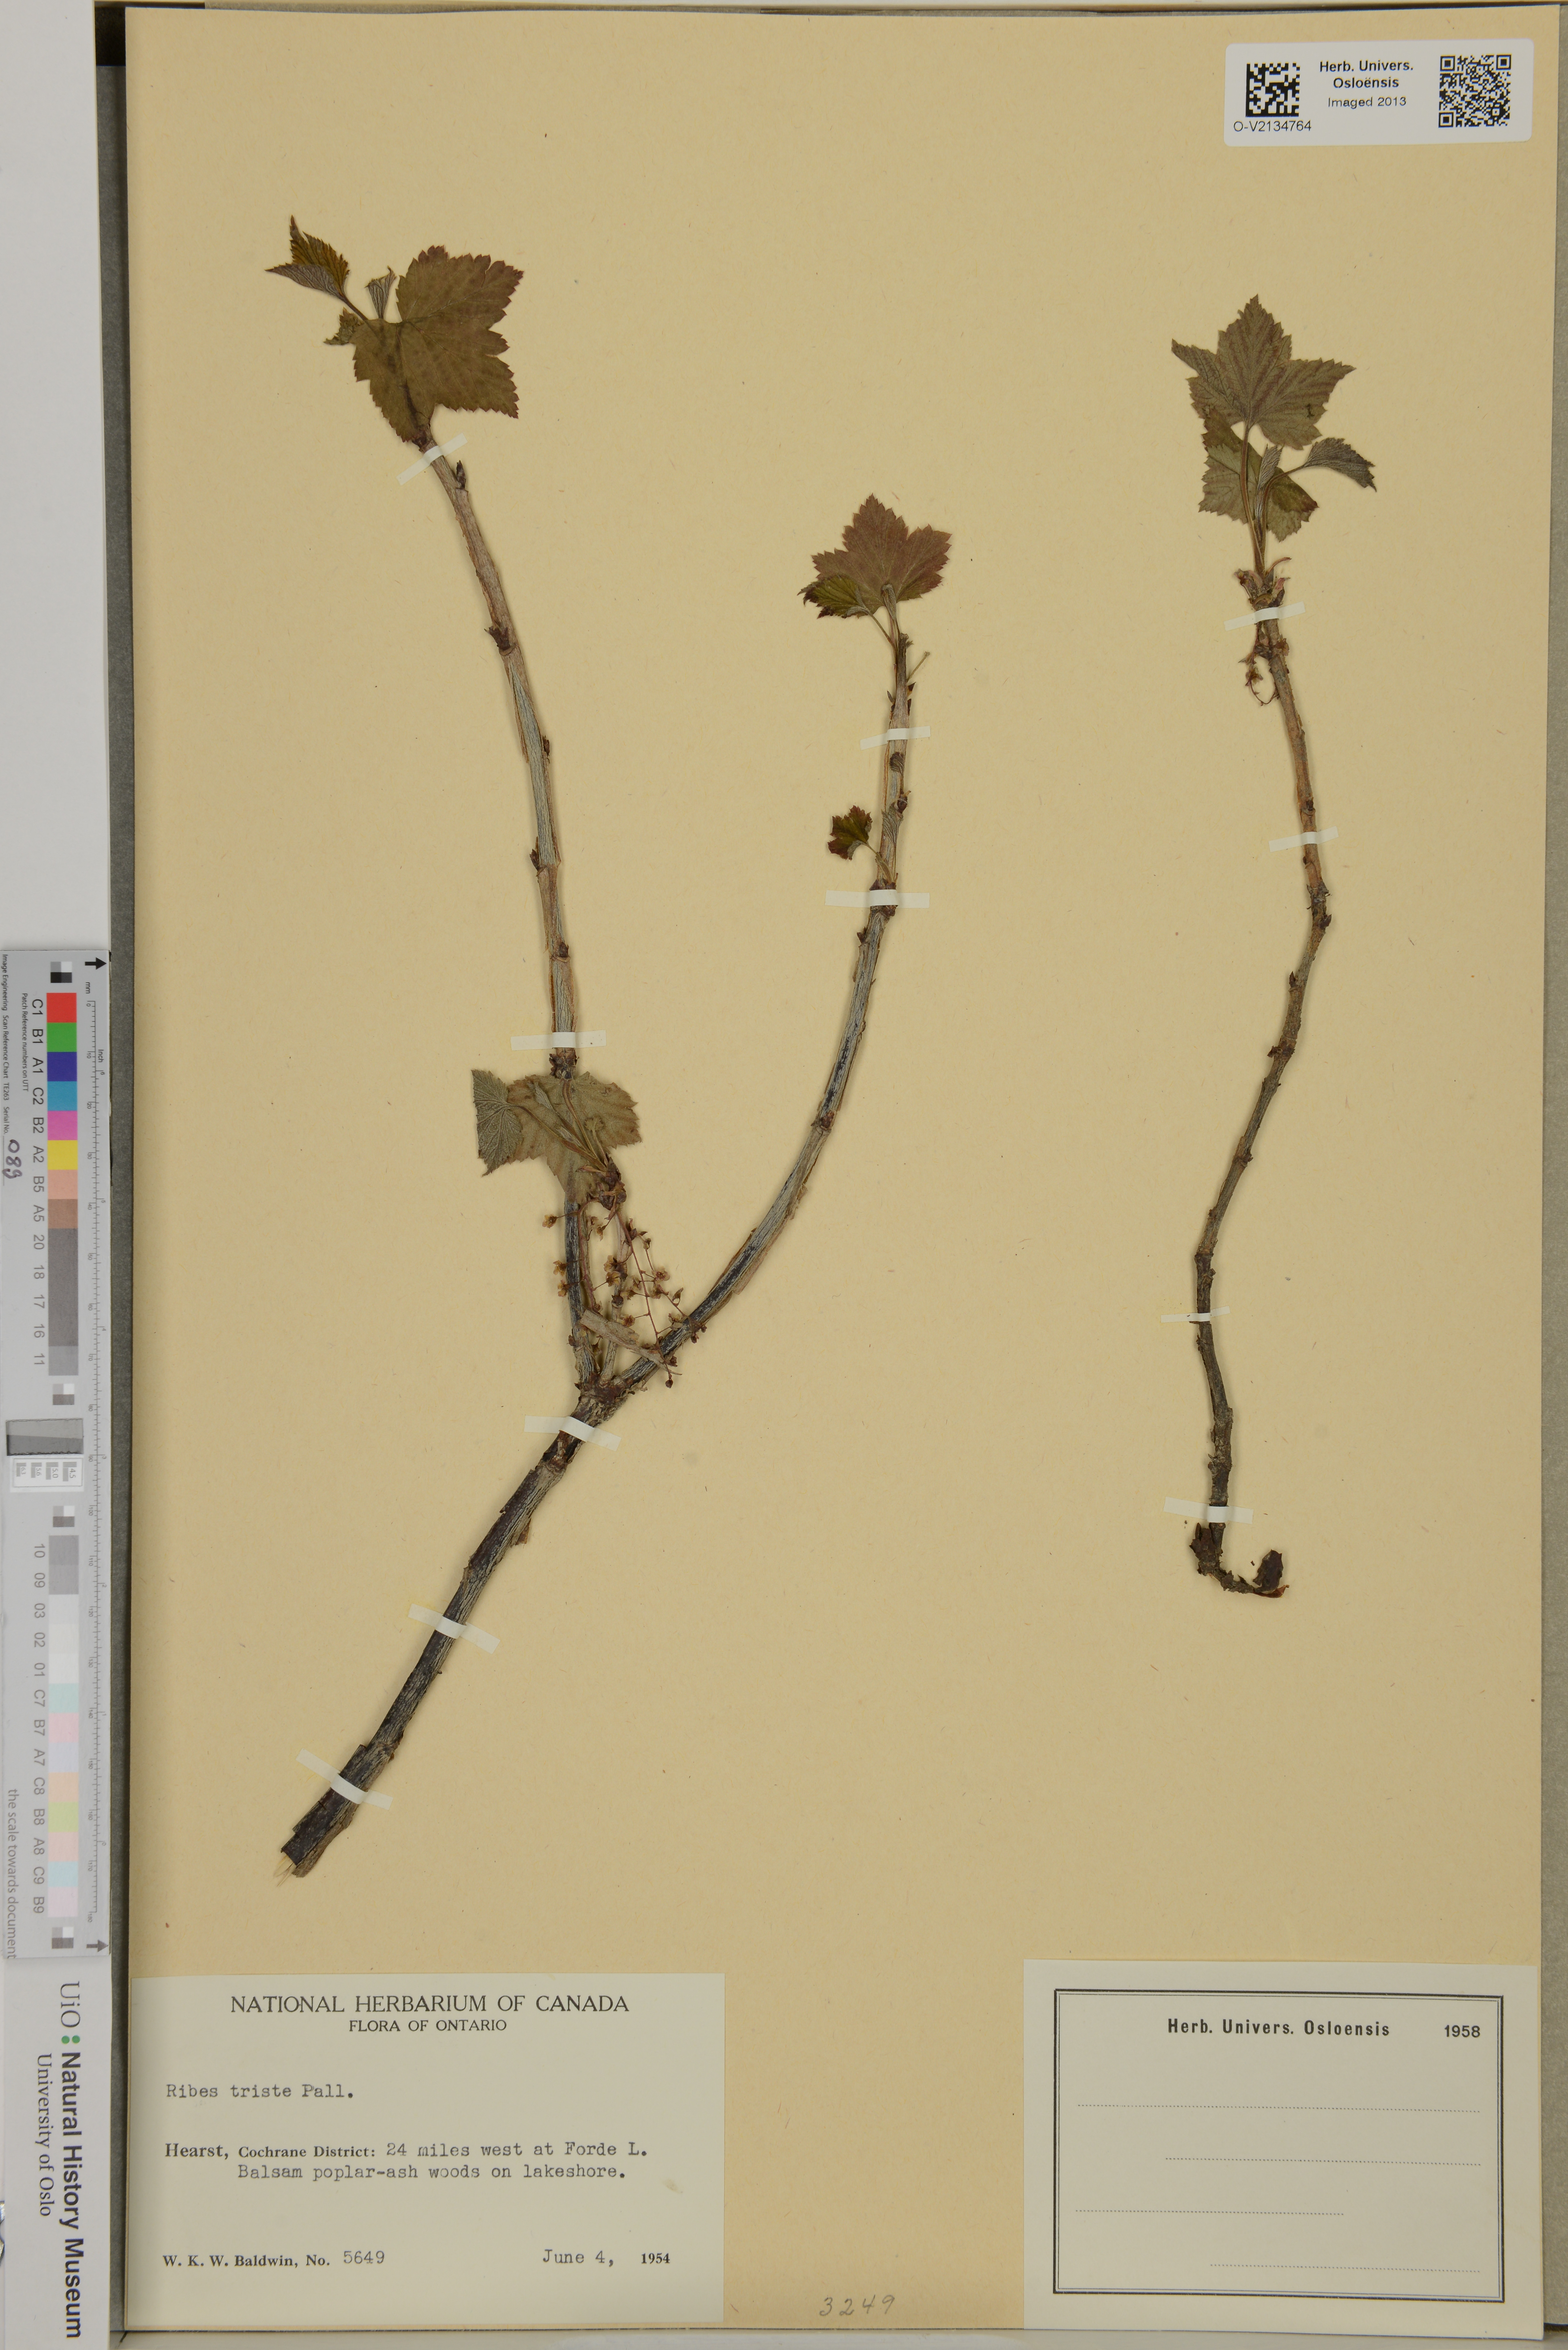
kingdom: Plantae
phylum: Tracheophyta
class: Magnoliopsida
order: Saxifragales
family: Grossulariaceae
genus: Ribes
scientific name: Ribes triste
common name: Swamp red currant
